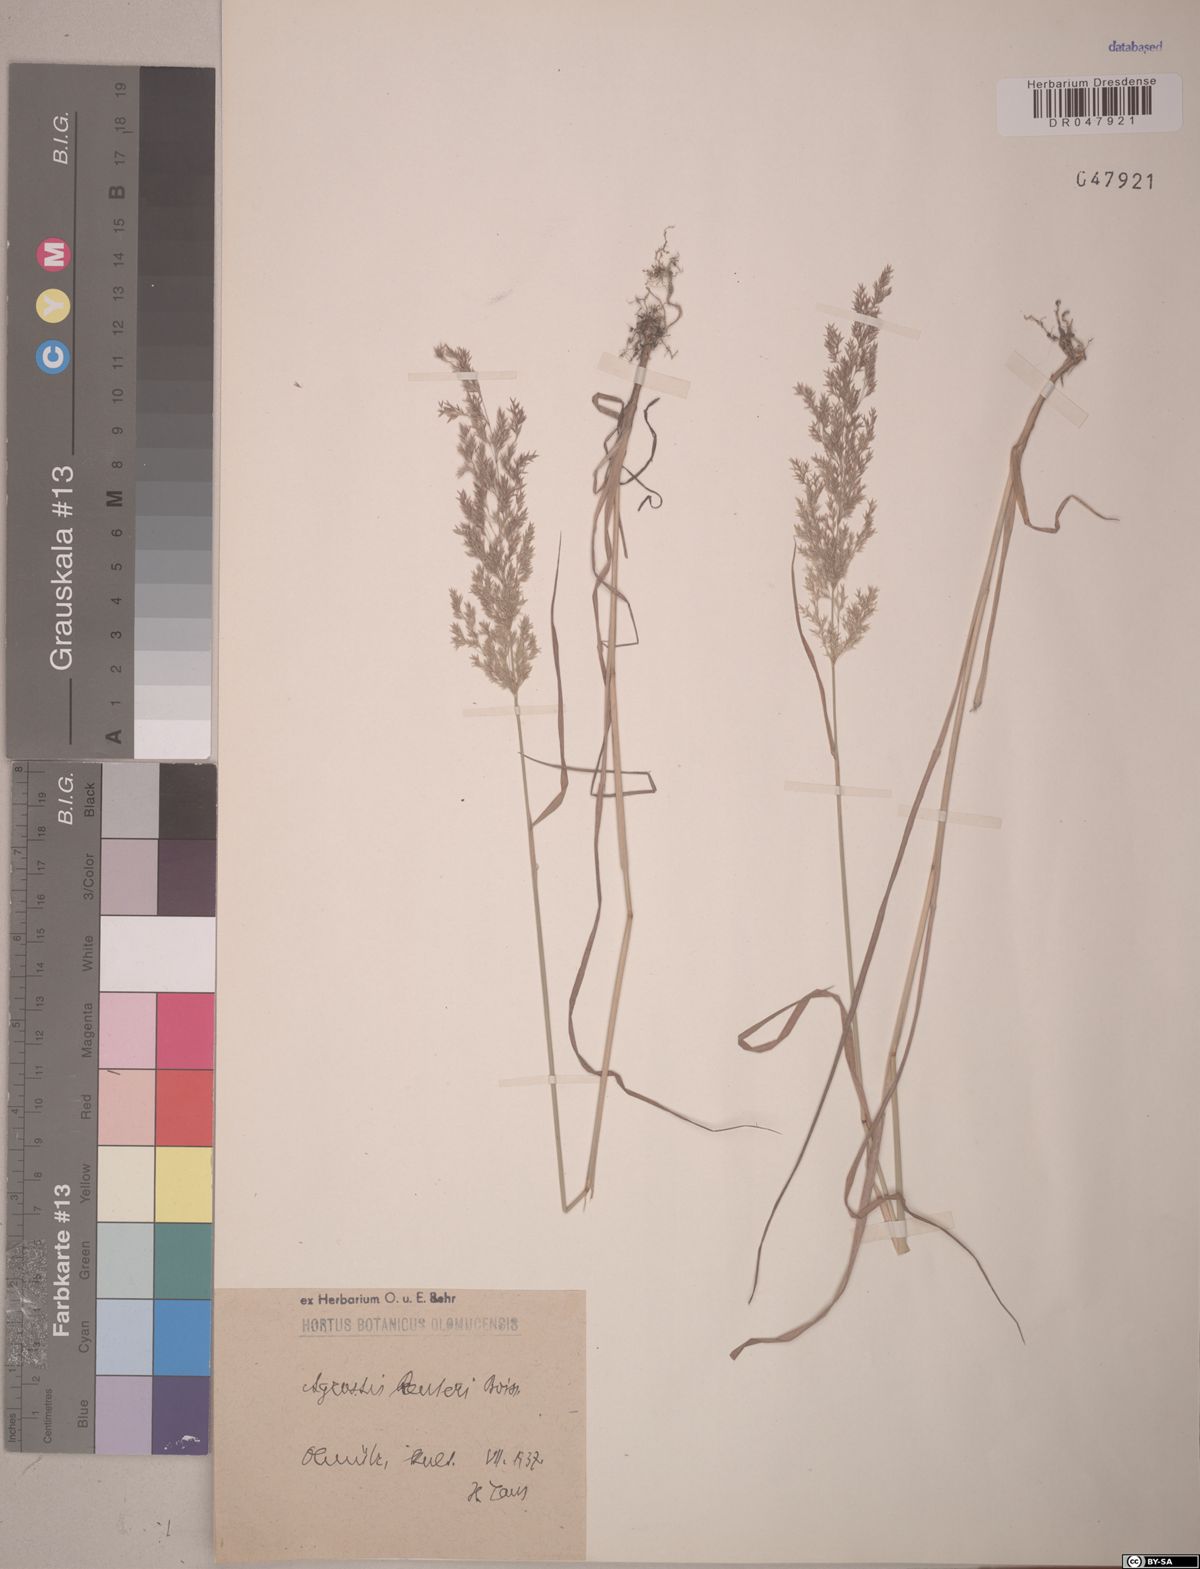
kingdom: Plantae
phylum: Tracheophyta
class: Liliopsida
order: Poales
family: Poaceae
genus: Agrostis
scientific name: Agrostis reuteri
